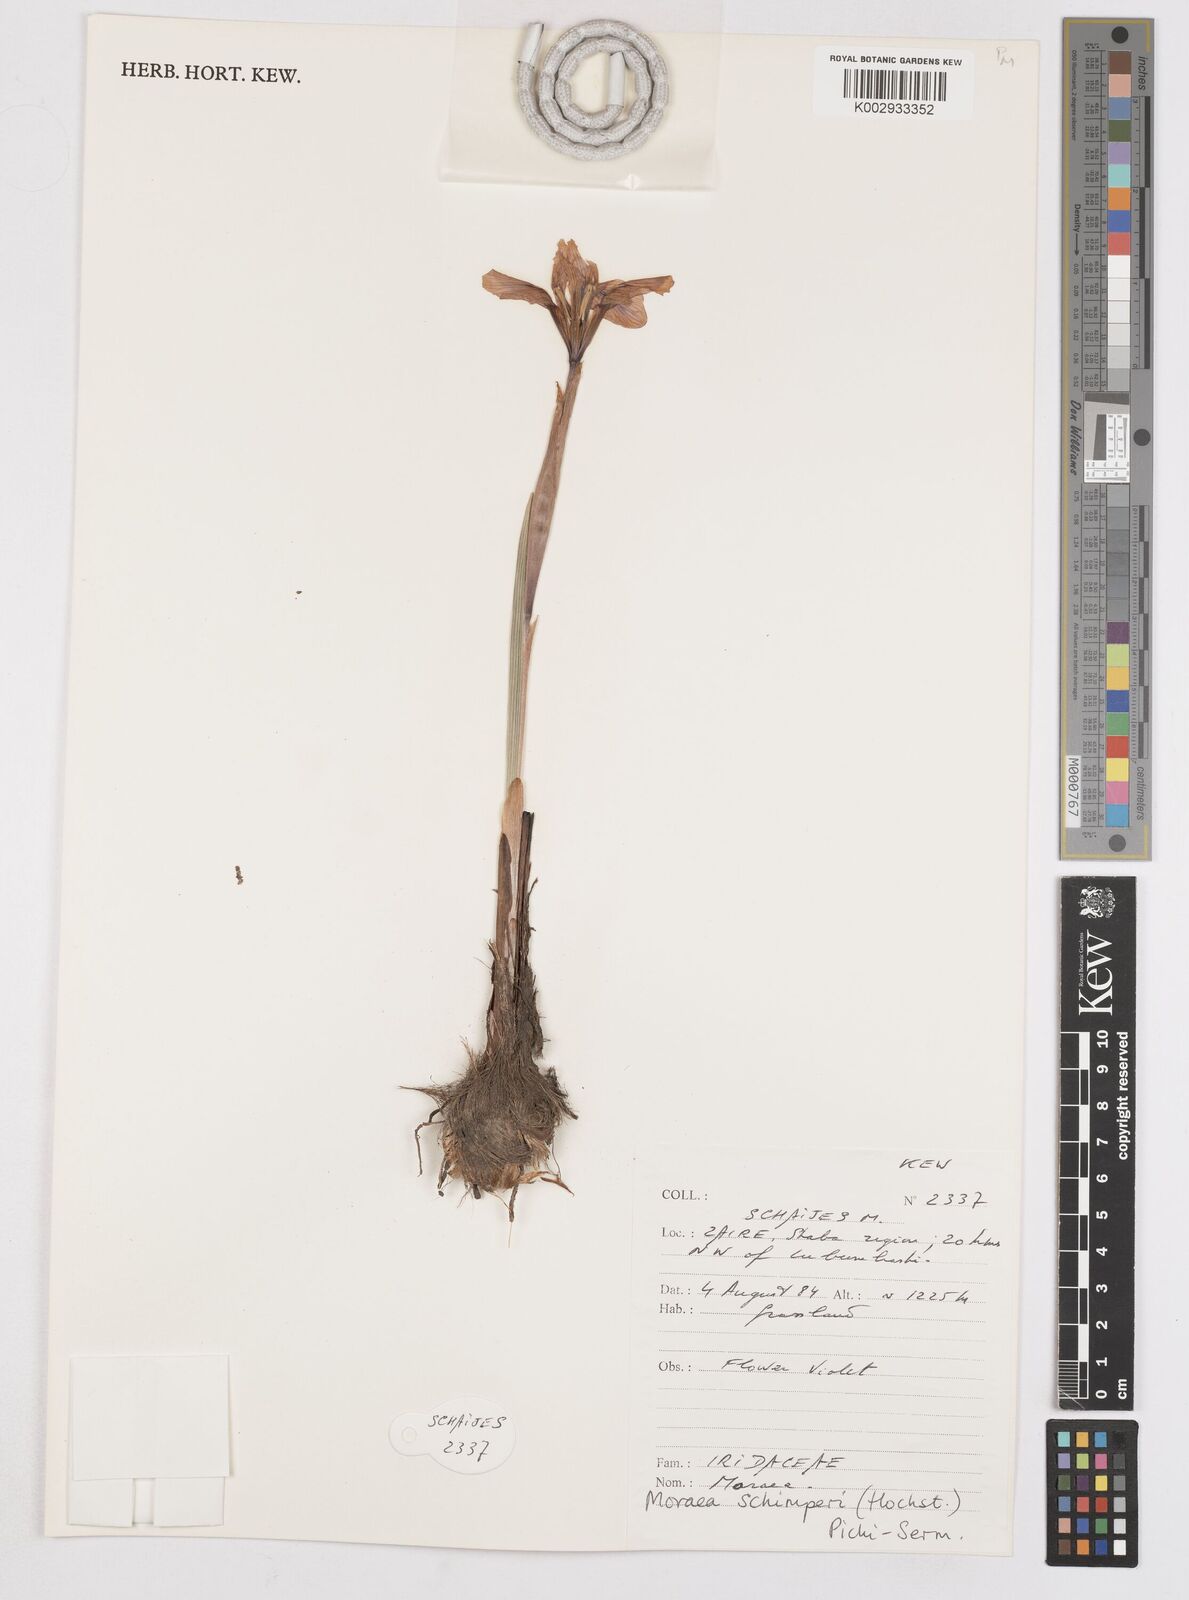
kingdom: Plantae
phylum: Tracheophyta
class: Liliopsida
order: Asparagales
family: Iridaceae
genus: Moraea
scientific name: Moraea schimperi
